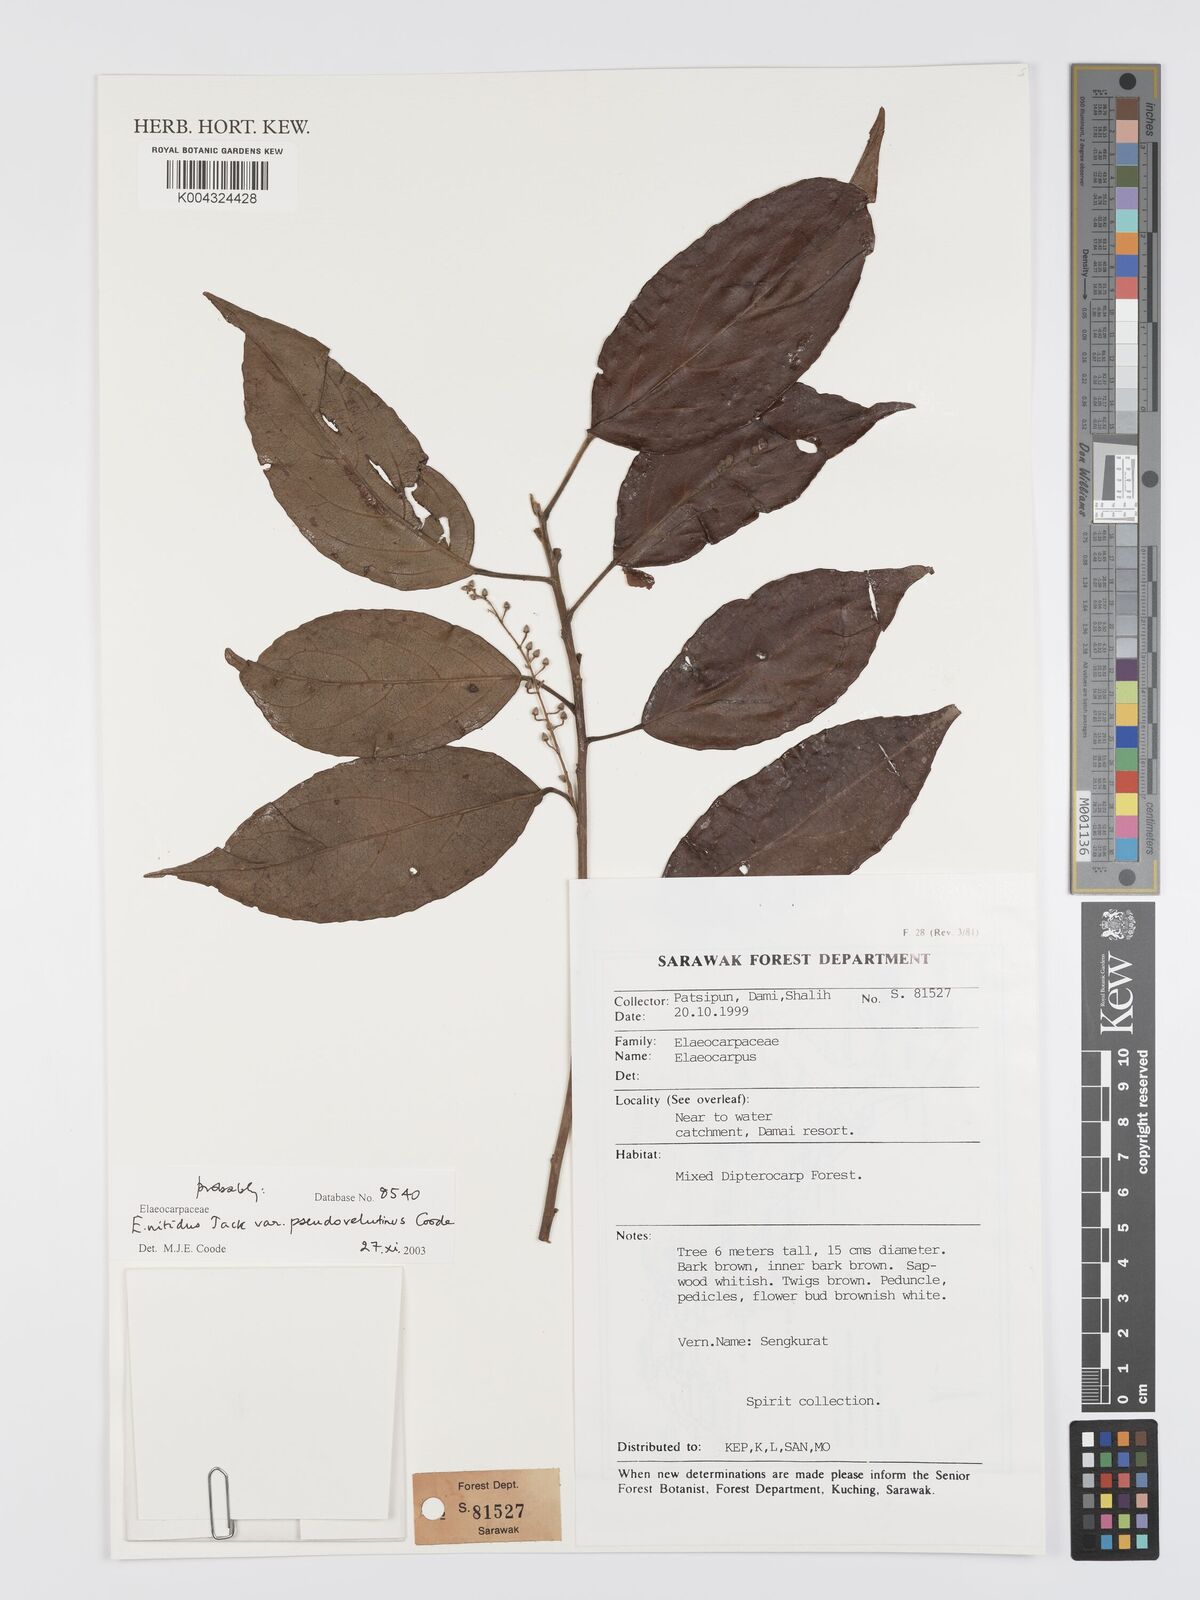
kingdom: Plantae
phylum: Tracheophyta
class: Magnoliopsida
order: Oxalidales
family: Elaeocarpaceae
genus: Elaeocarpus
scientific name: Elaeocarpus nitidus
